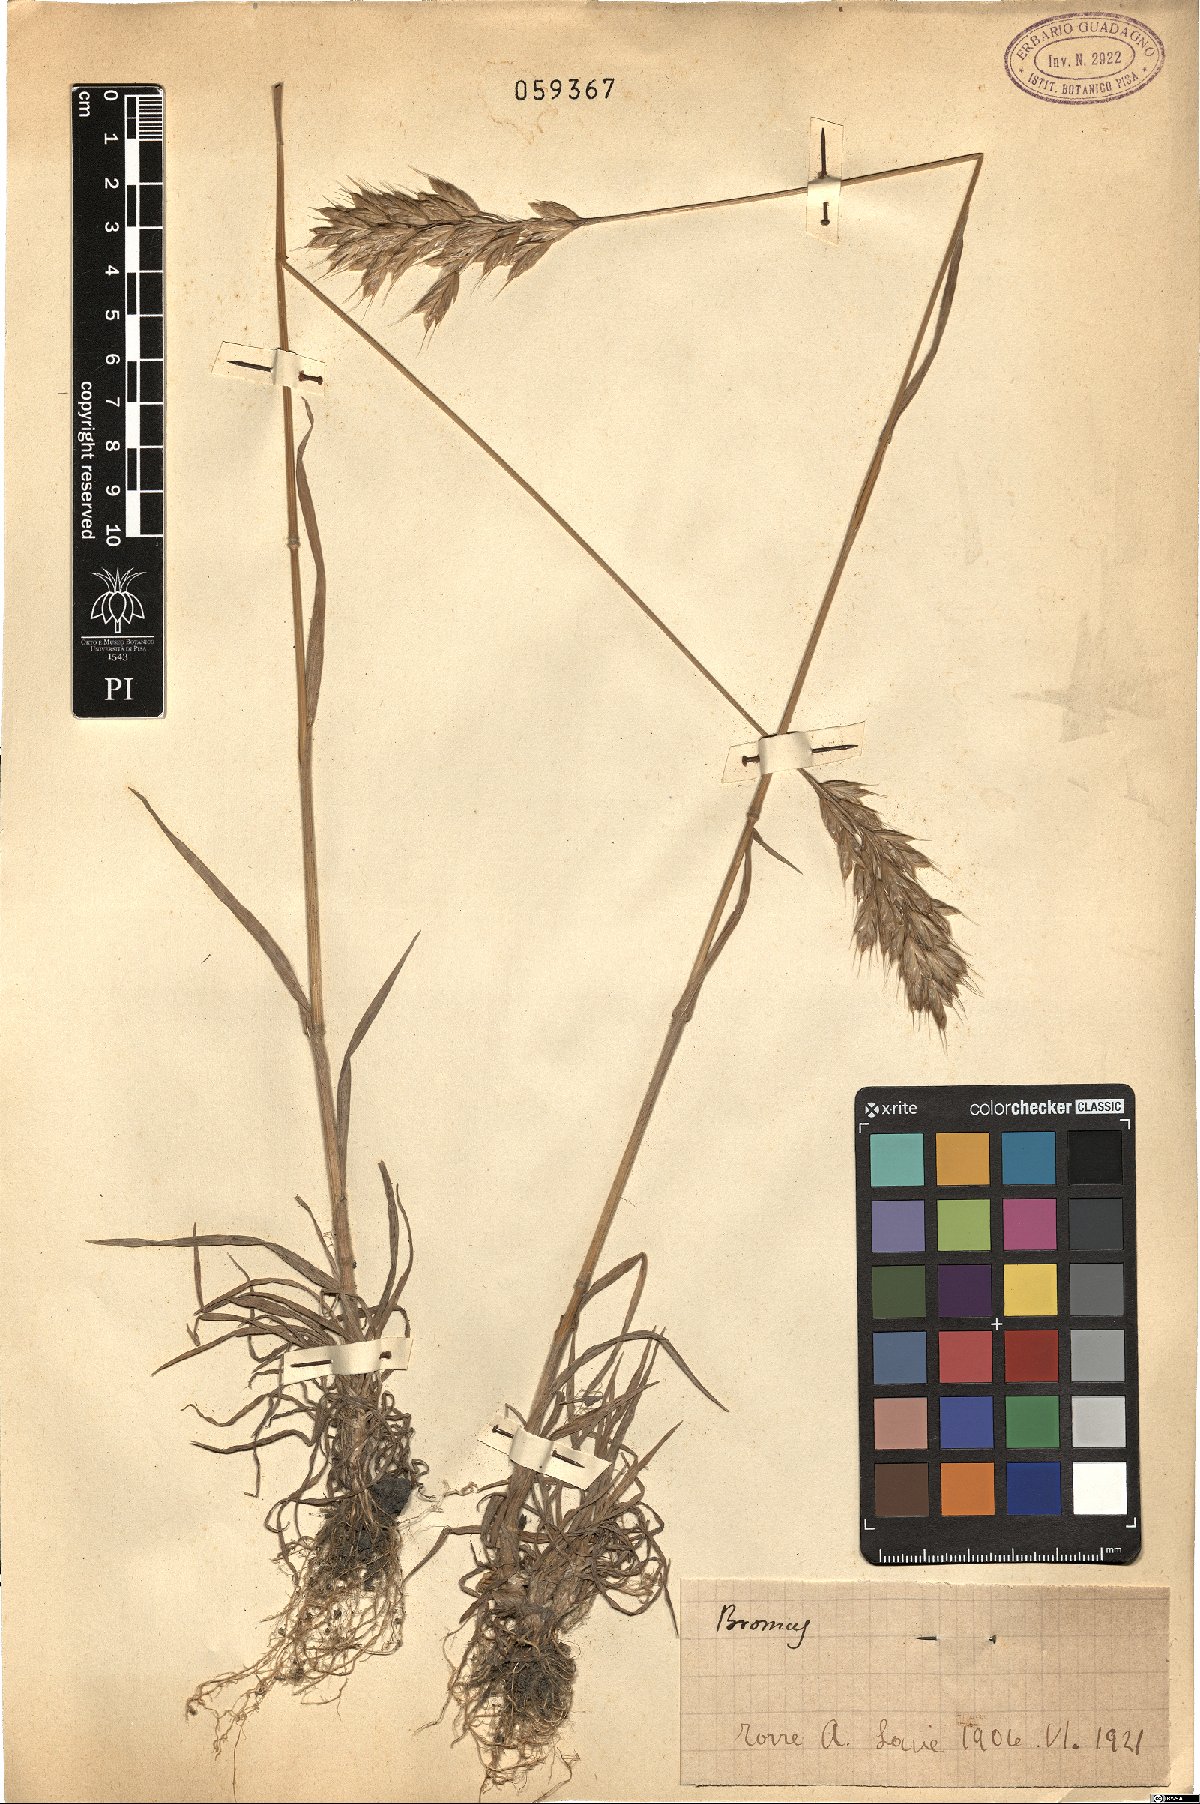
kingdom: Plantae
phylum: Tracheophyta
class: Liliopsida
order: Poales
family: Poaceae
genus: Bromus
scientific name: Bromus
